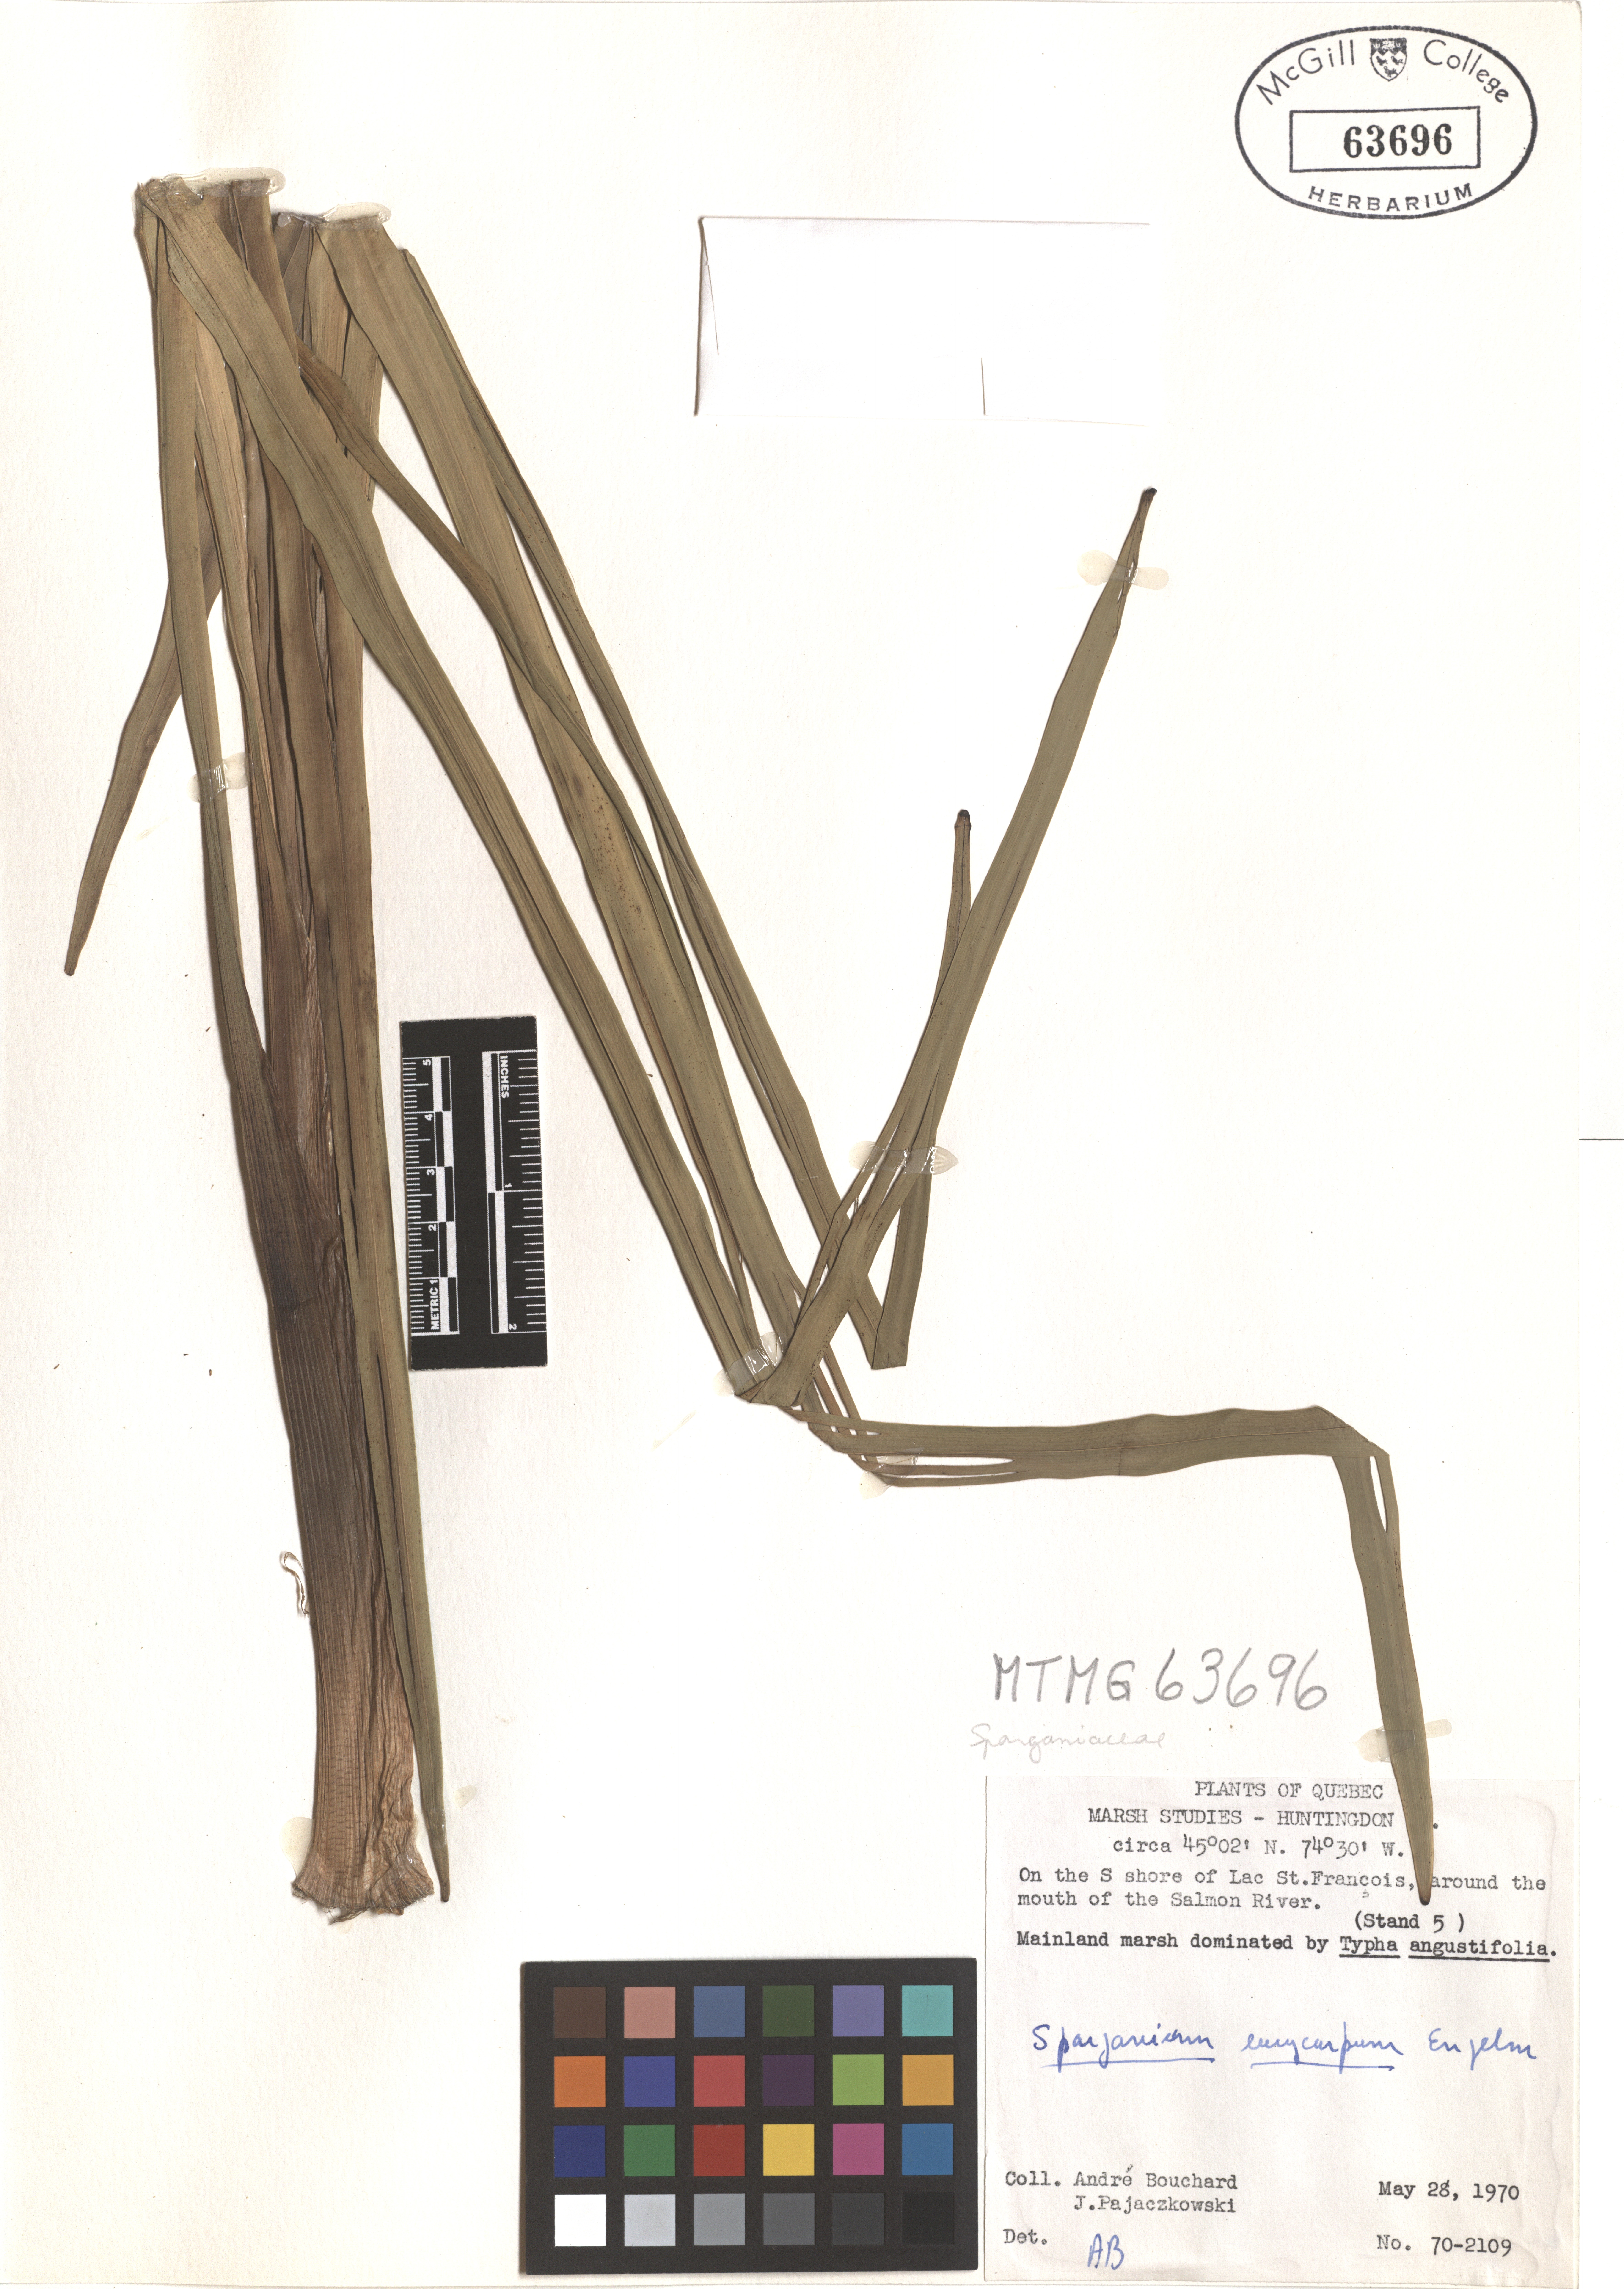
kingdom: Plantae
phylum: Tracheophyta
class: Liliopsida
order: Poales
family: Typhaceae
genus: Sparganium
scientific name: Sparganium eurycarpum
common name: Broad-fruited burreed
